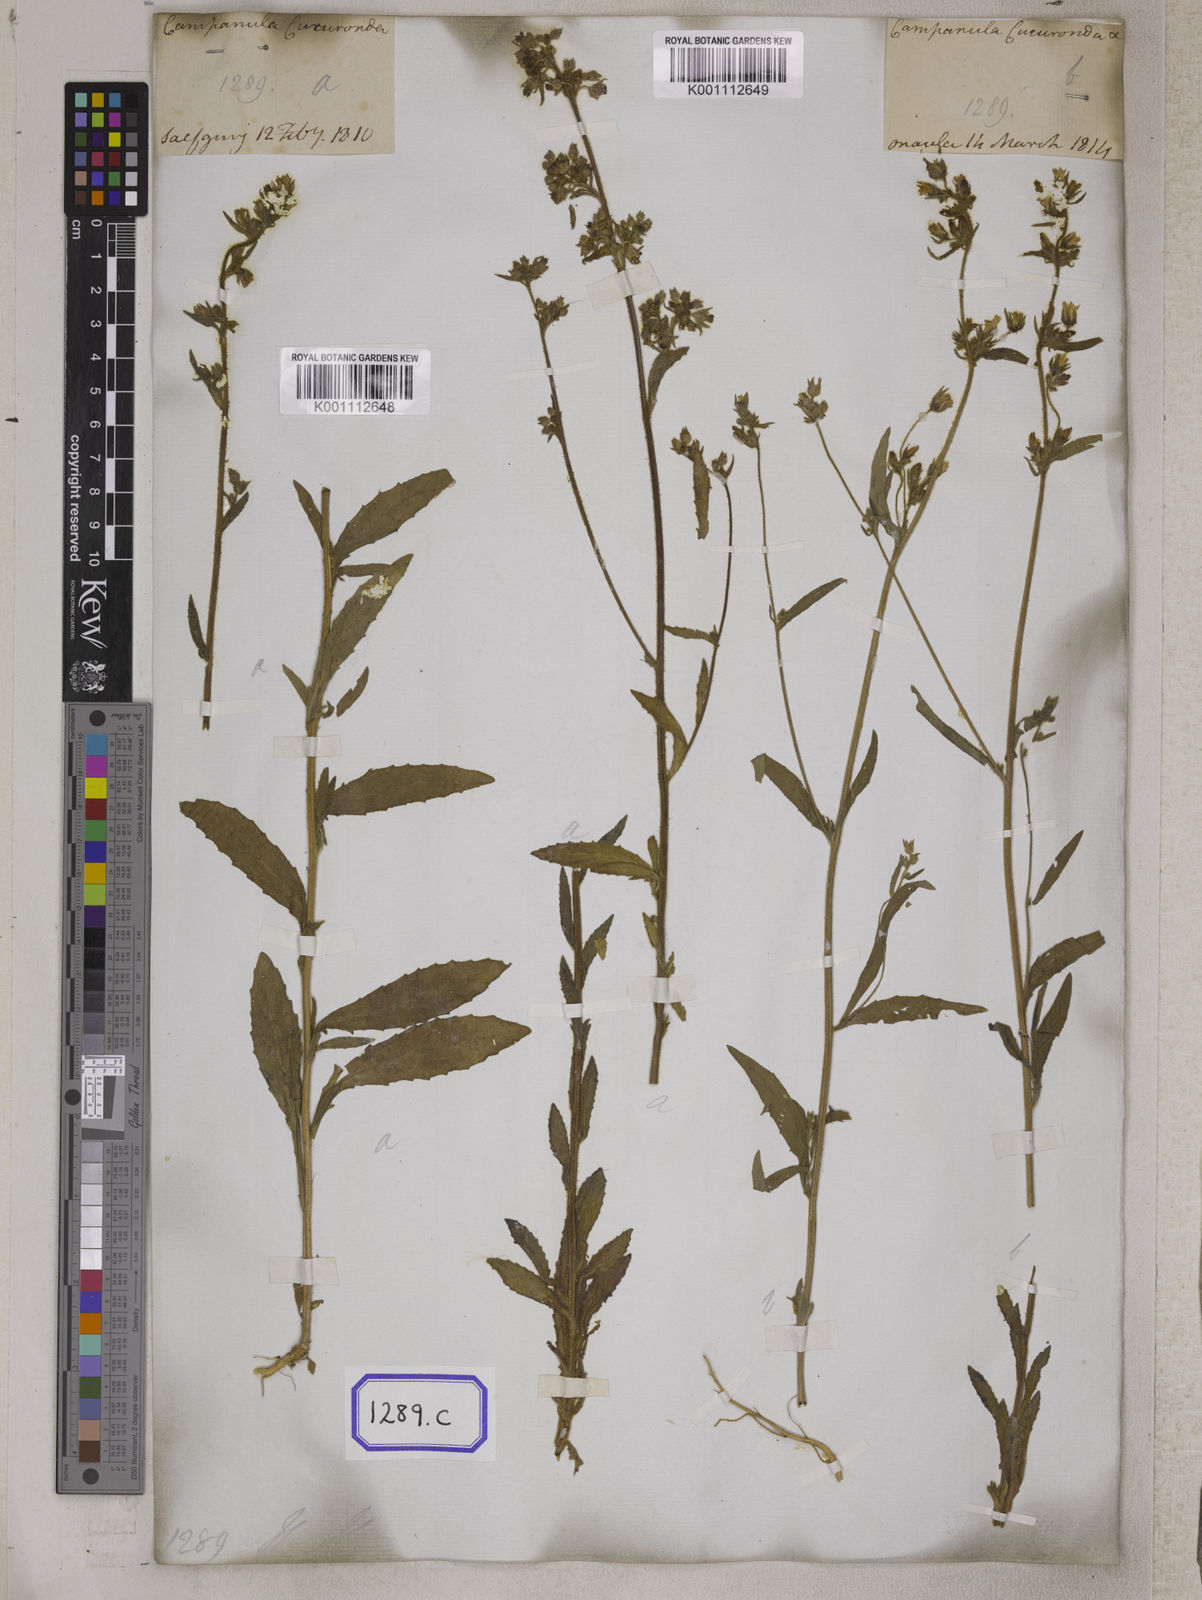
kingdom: Plantae
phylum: Tracheophyta
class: Magnoliopsida
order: Asterales
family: Campanulaceae
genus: Campanula
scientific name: Campanula
